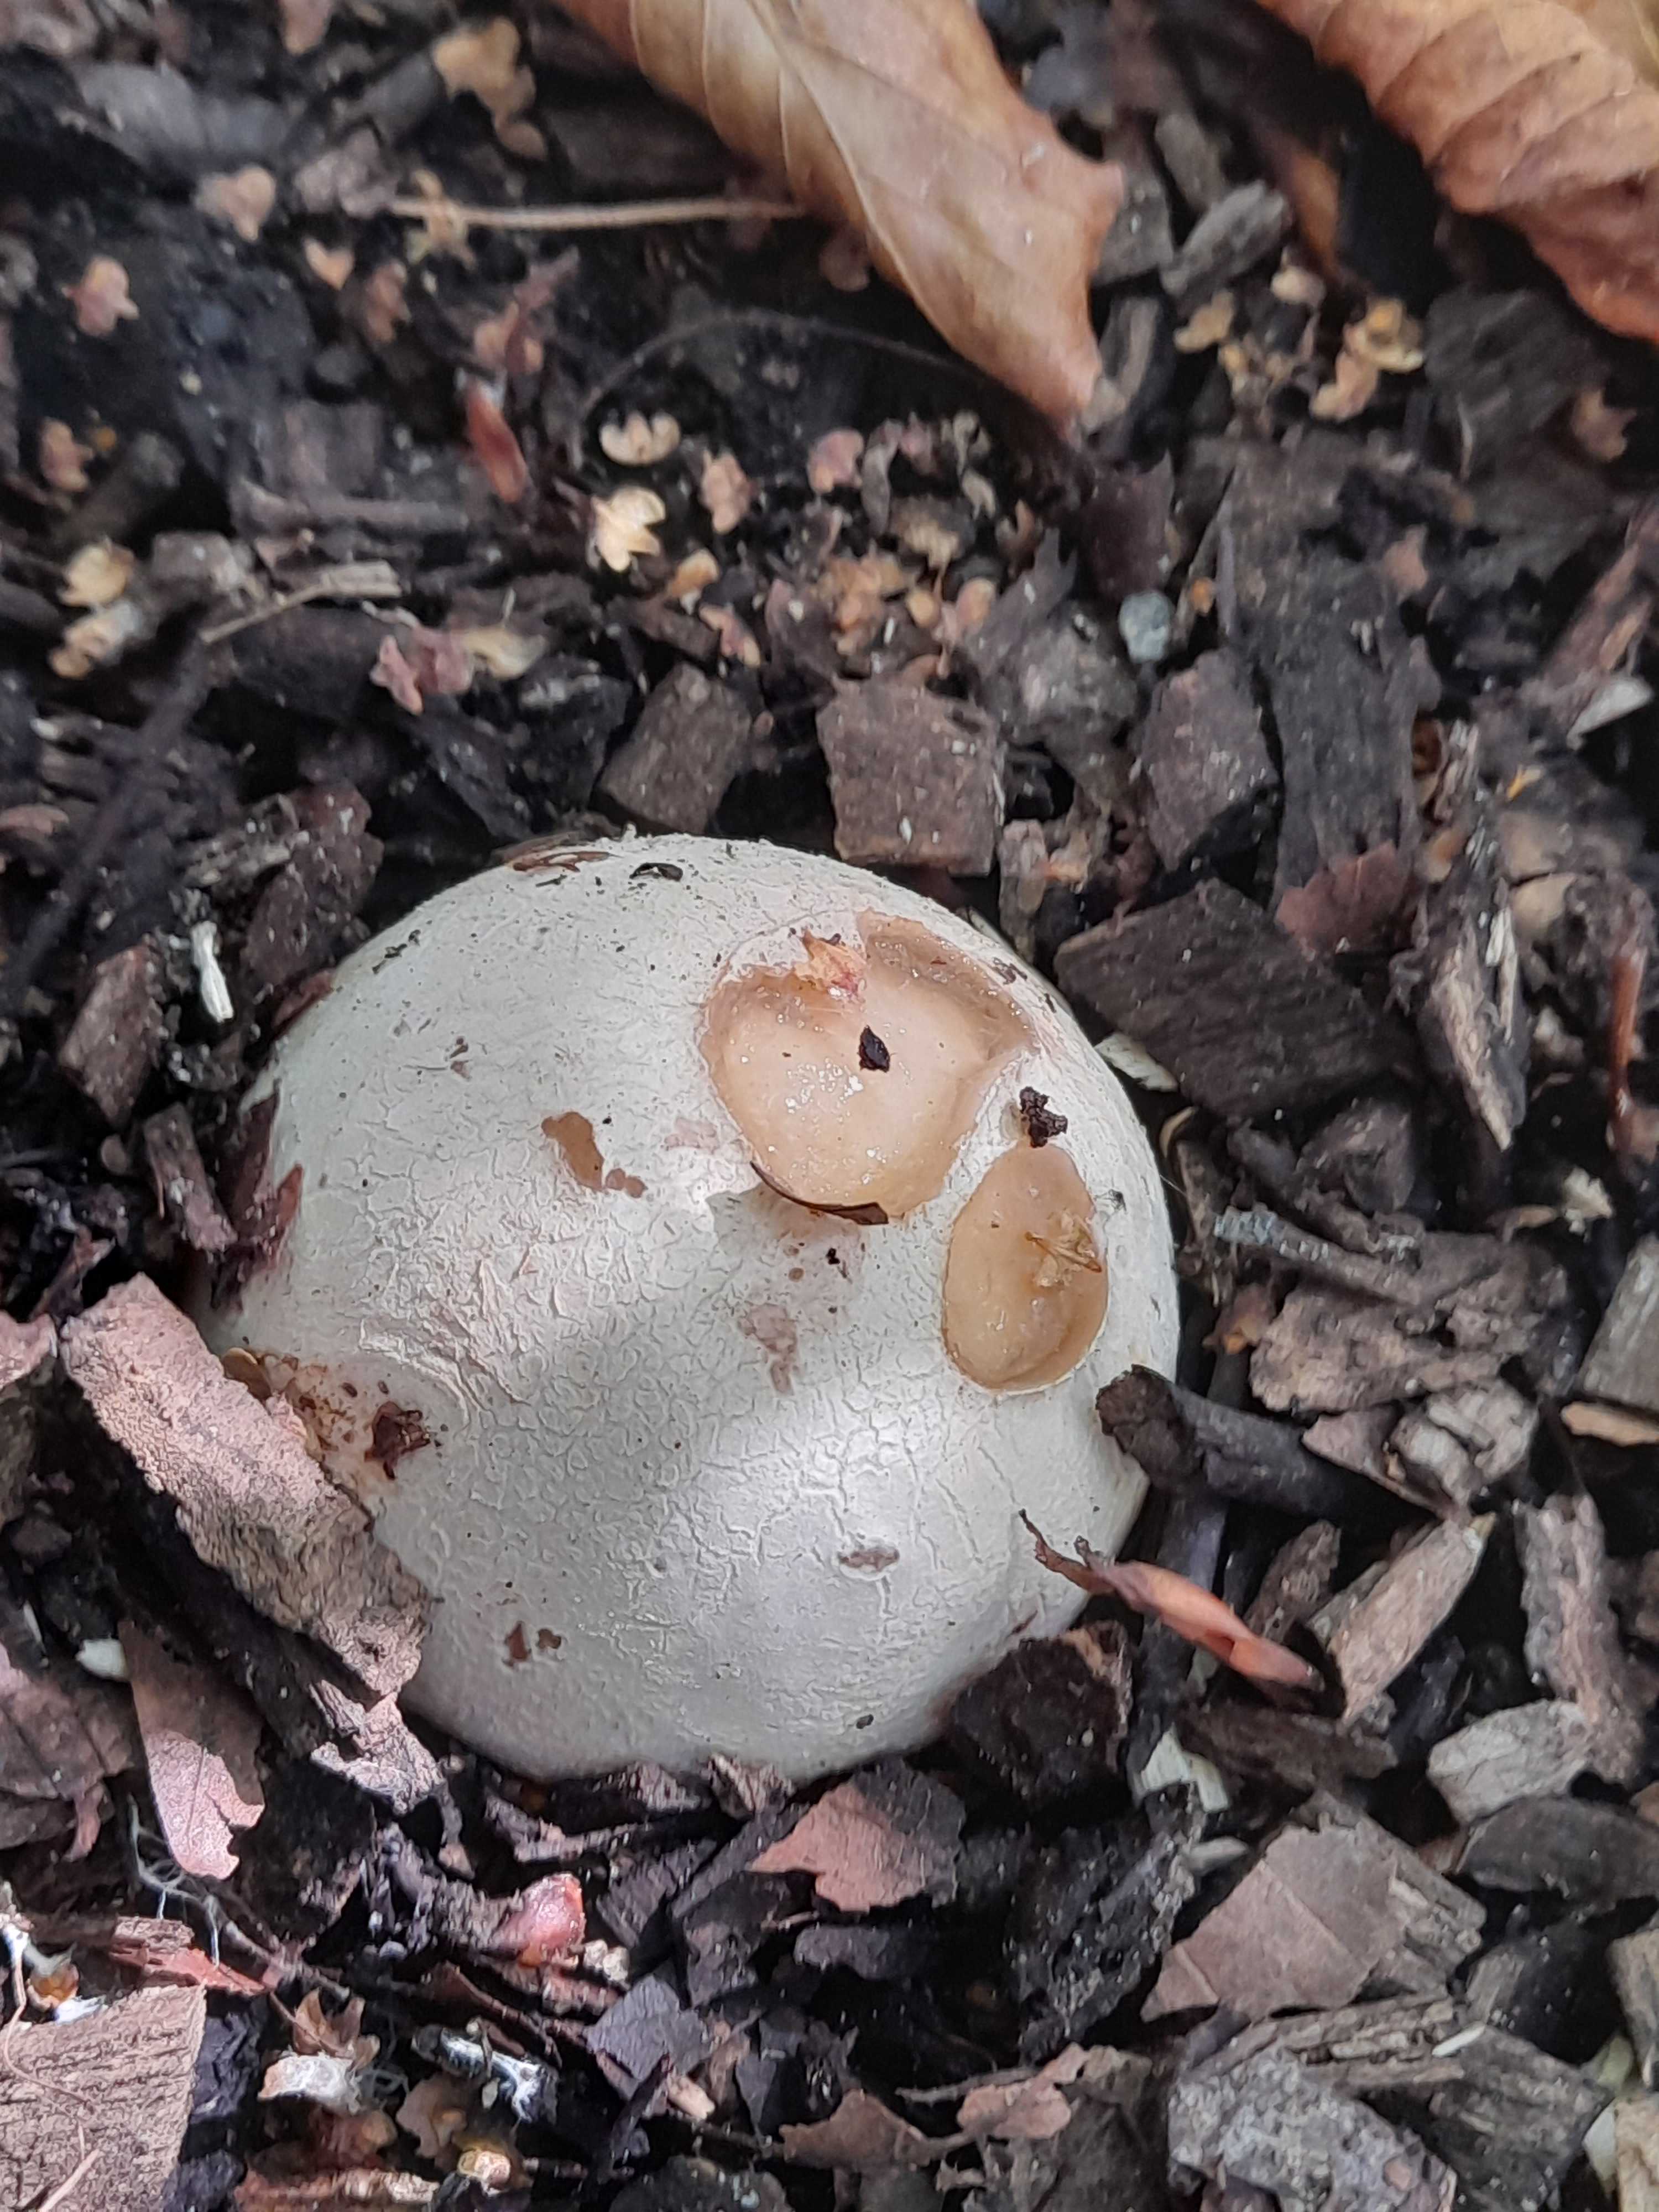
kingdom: Fungi
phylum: Basidiomycota
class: Agaricomycetes
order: Phallales
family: Phallaceae
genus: Phallus
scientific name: Phallus impudicus
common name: almindelig stinksvamp
